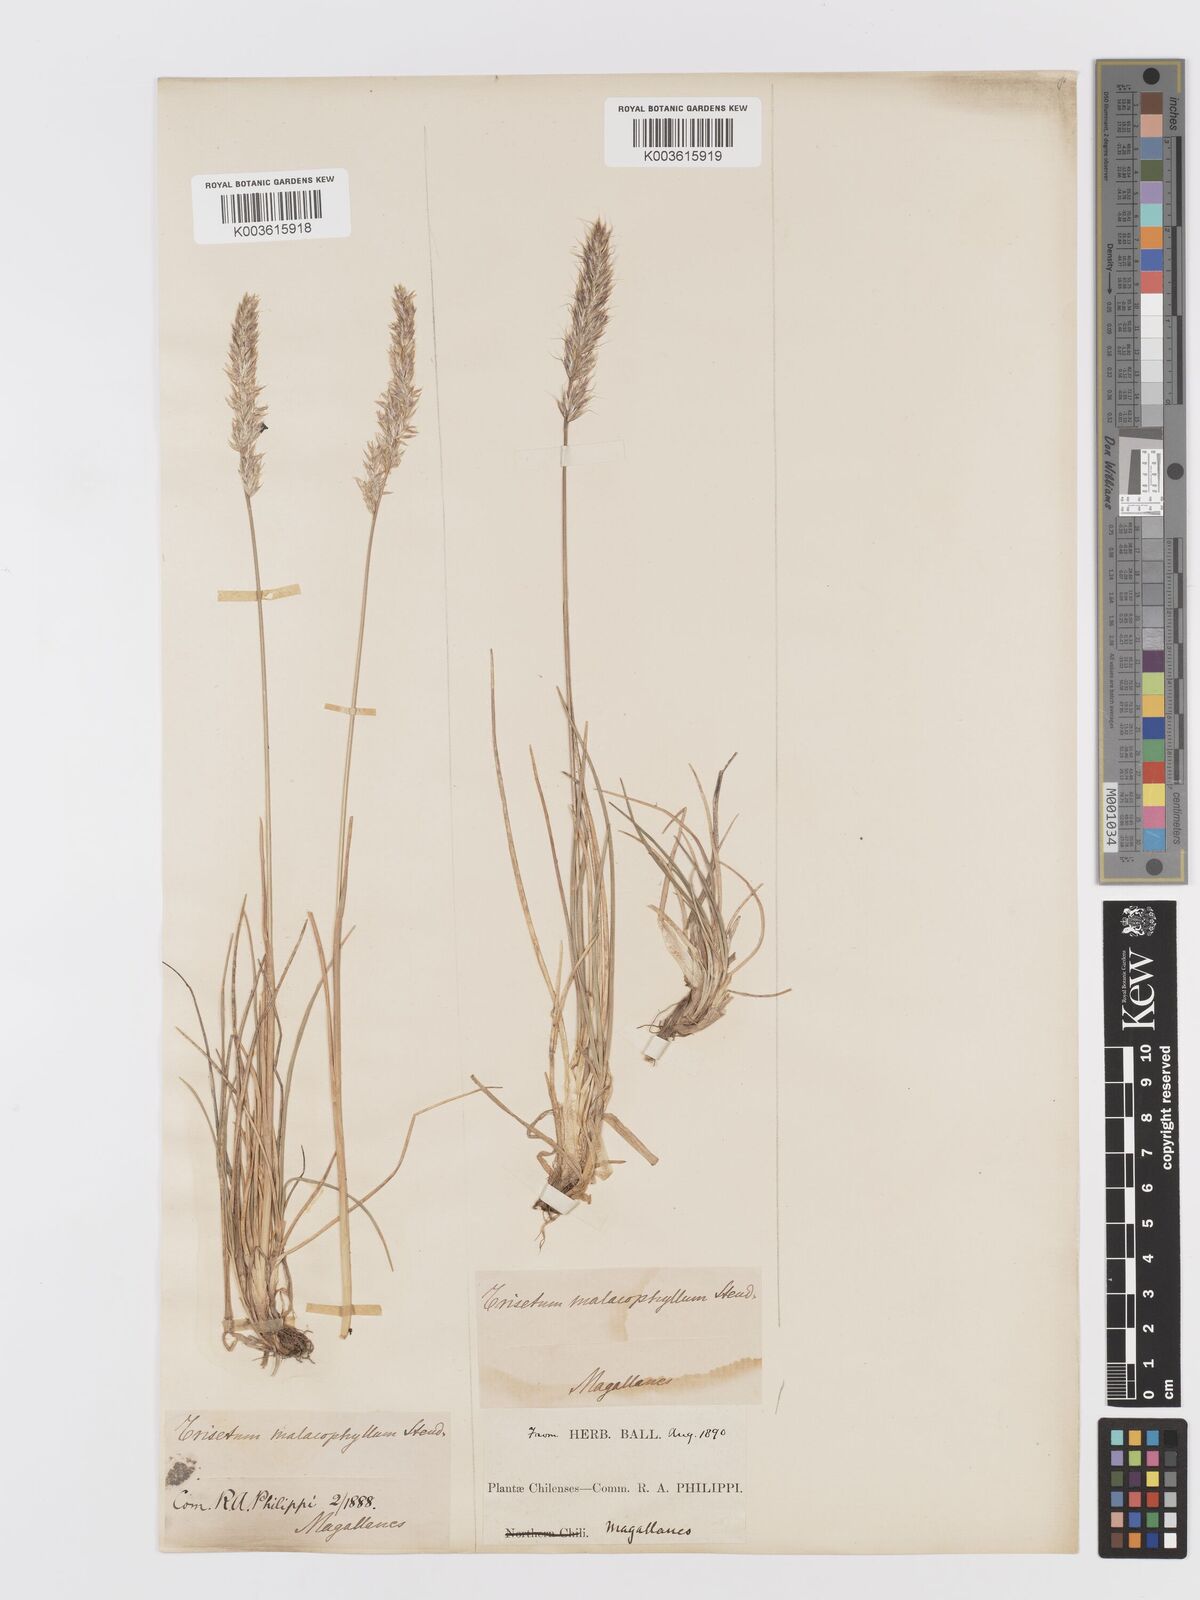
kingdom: Plantae
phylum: Tracheophyta
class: Liliopsida
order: Poales
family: Poaceae
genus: Koeleria
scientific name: Koeleria cumingii
